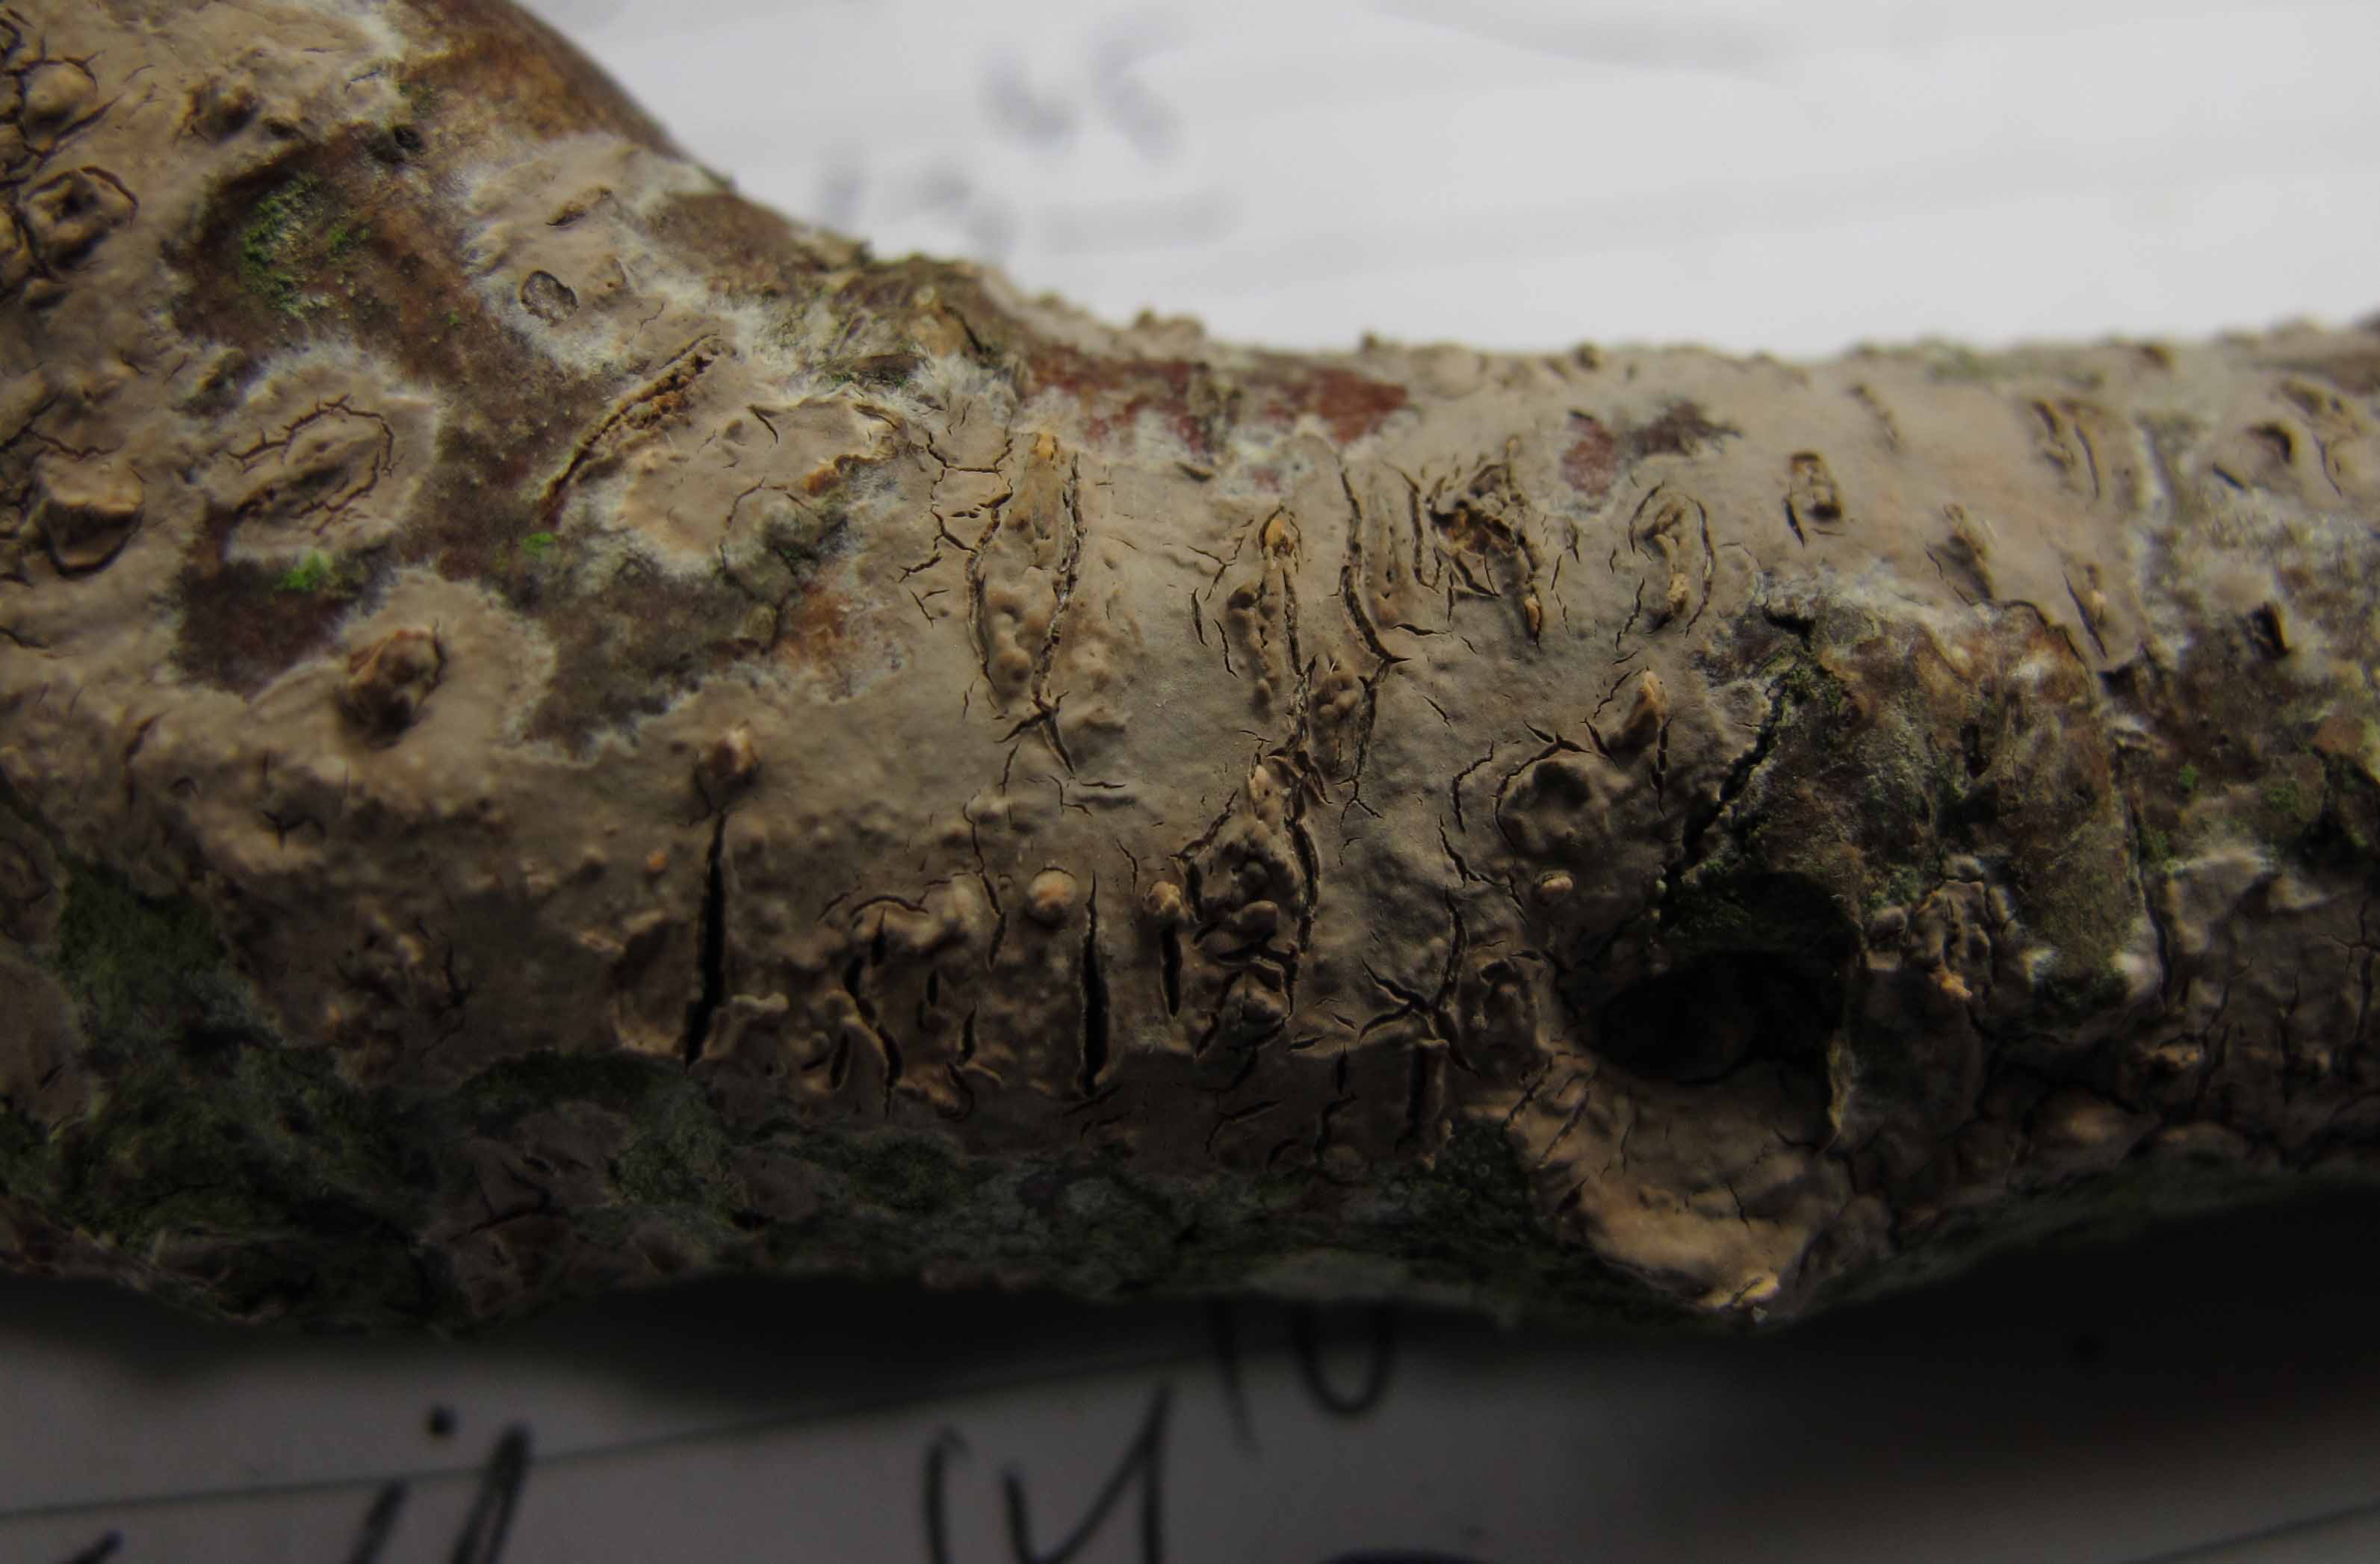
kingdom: Fungi
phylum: Basidiomycota
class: Agaricomycetes
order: Russulales
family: Peniophoraceae
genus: Peniophora
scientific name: Peniophora violaceolivida
